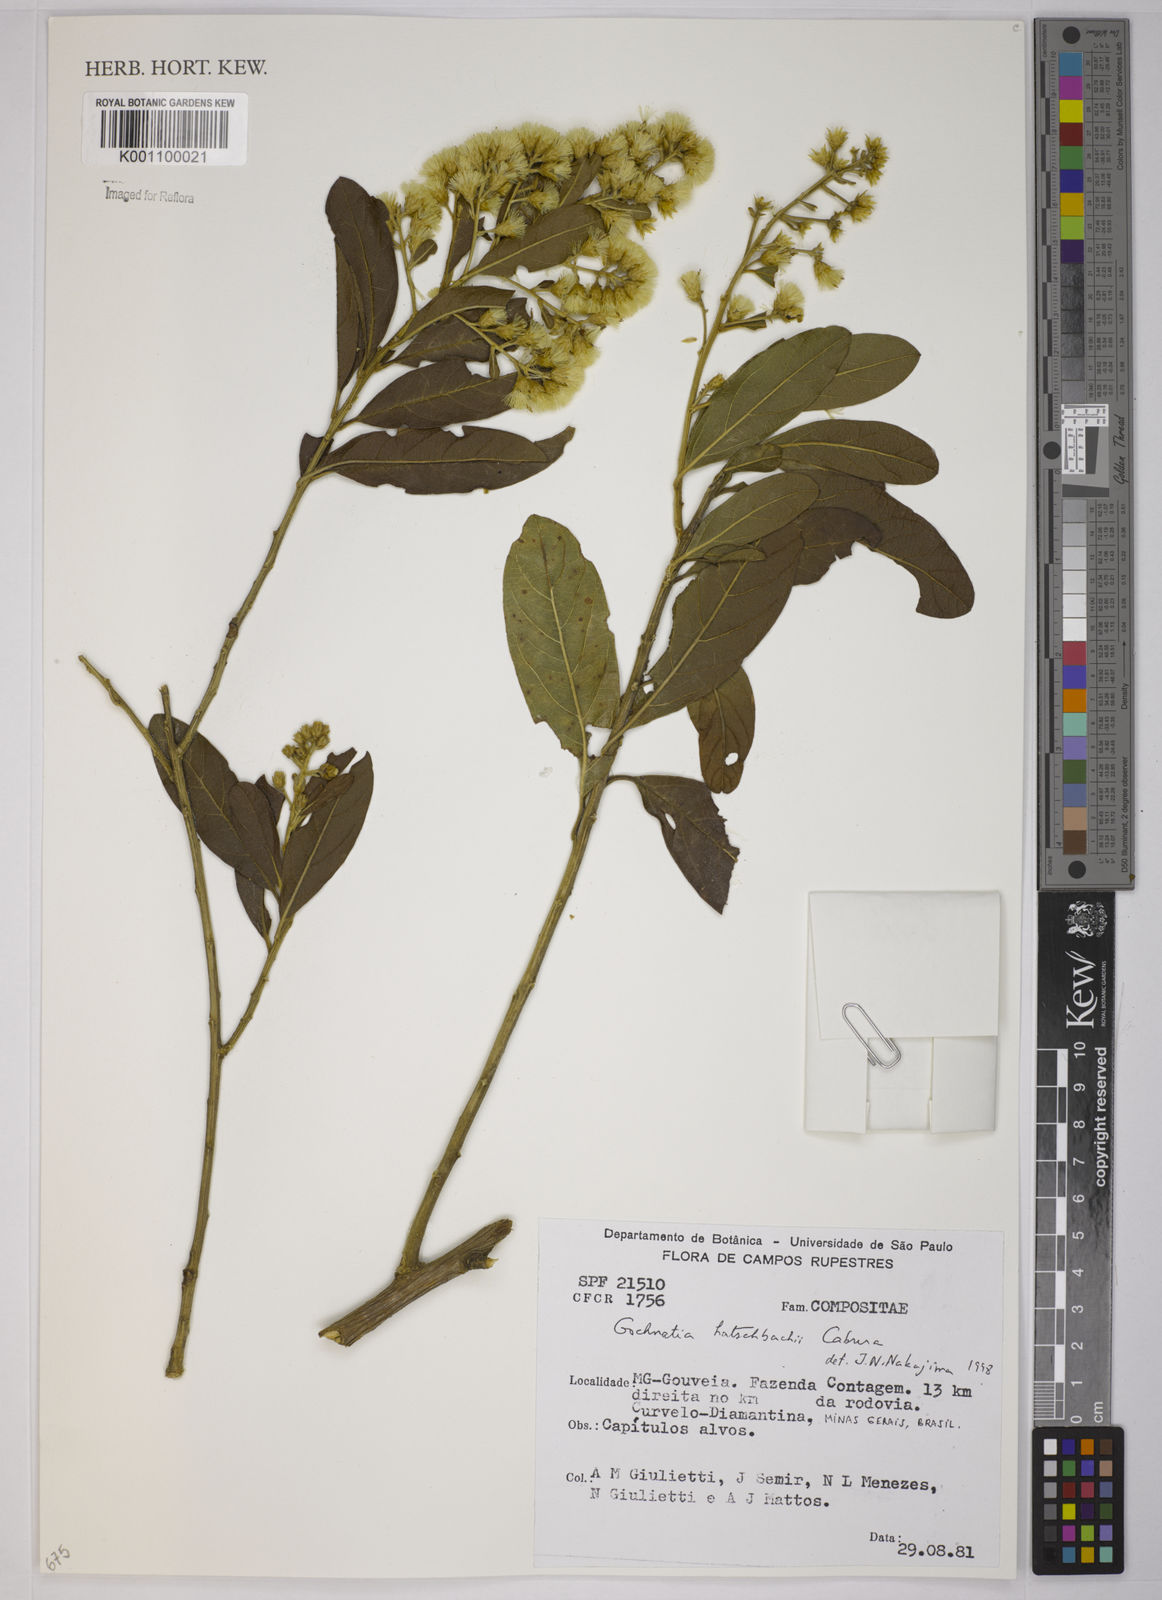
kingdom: Plantae
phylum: Tracheophyta
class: Magnoliopsida
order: Asterales
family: Asteraceae
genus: Moquiniastrum
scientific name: Moquiniastrum hatschbachii
